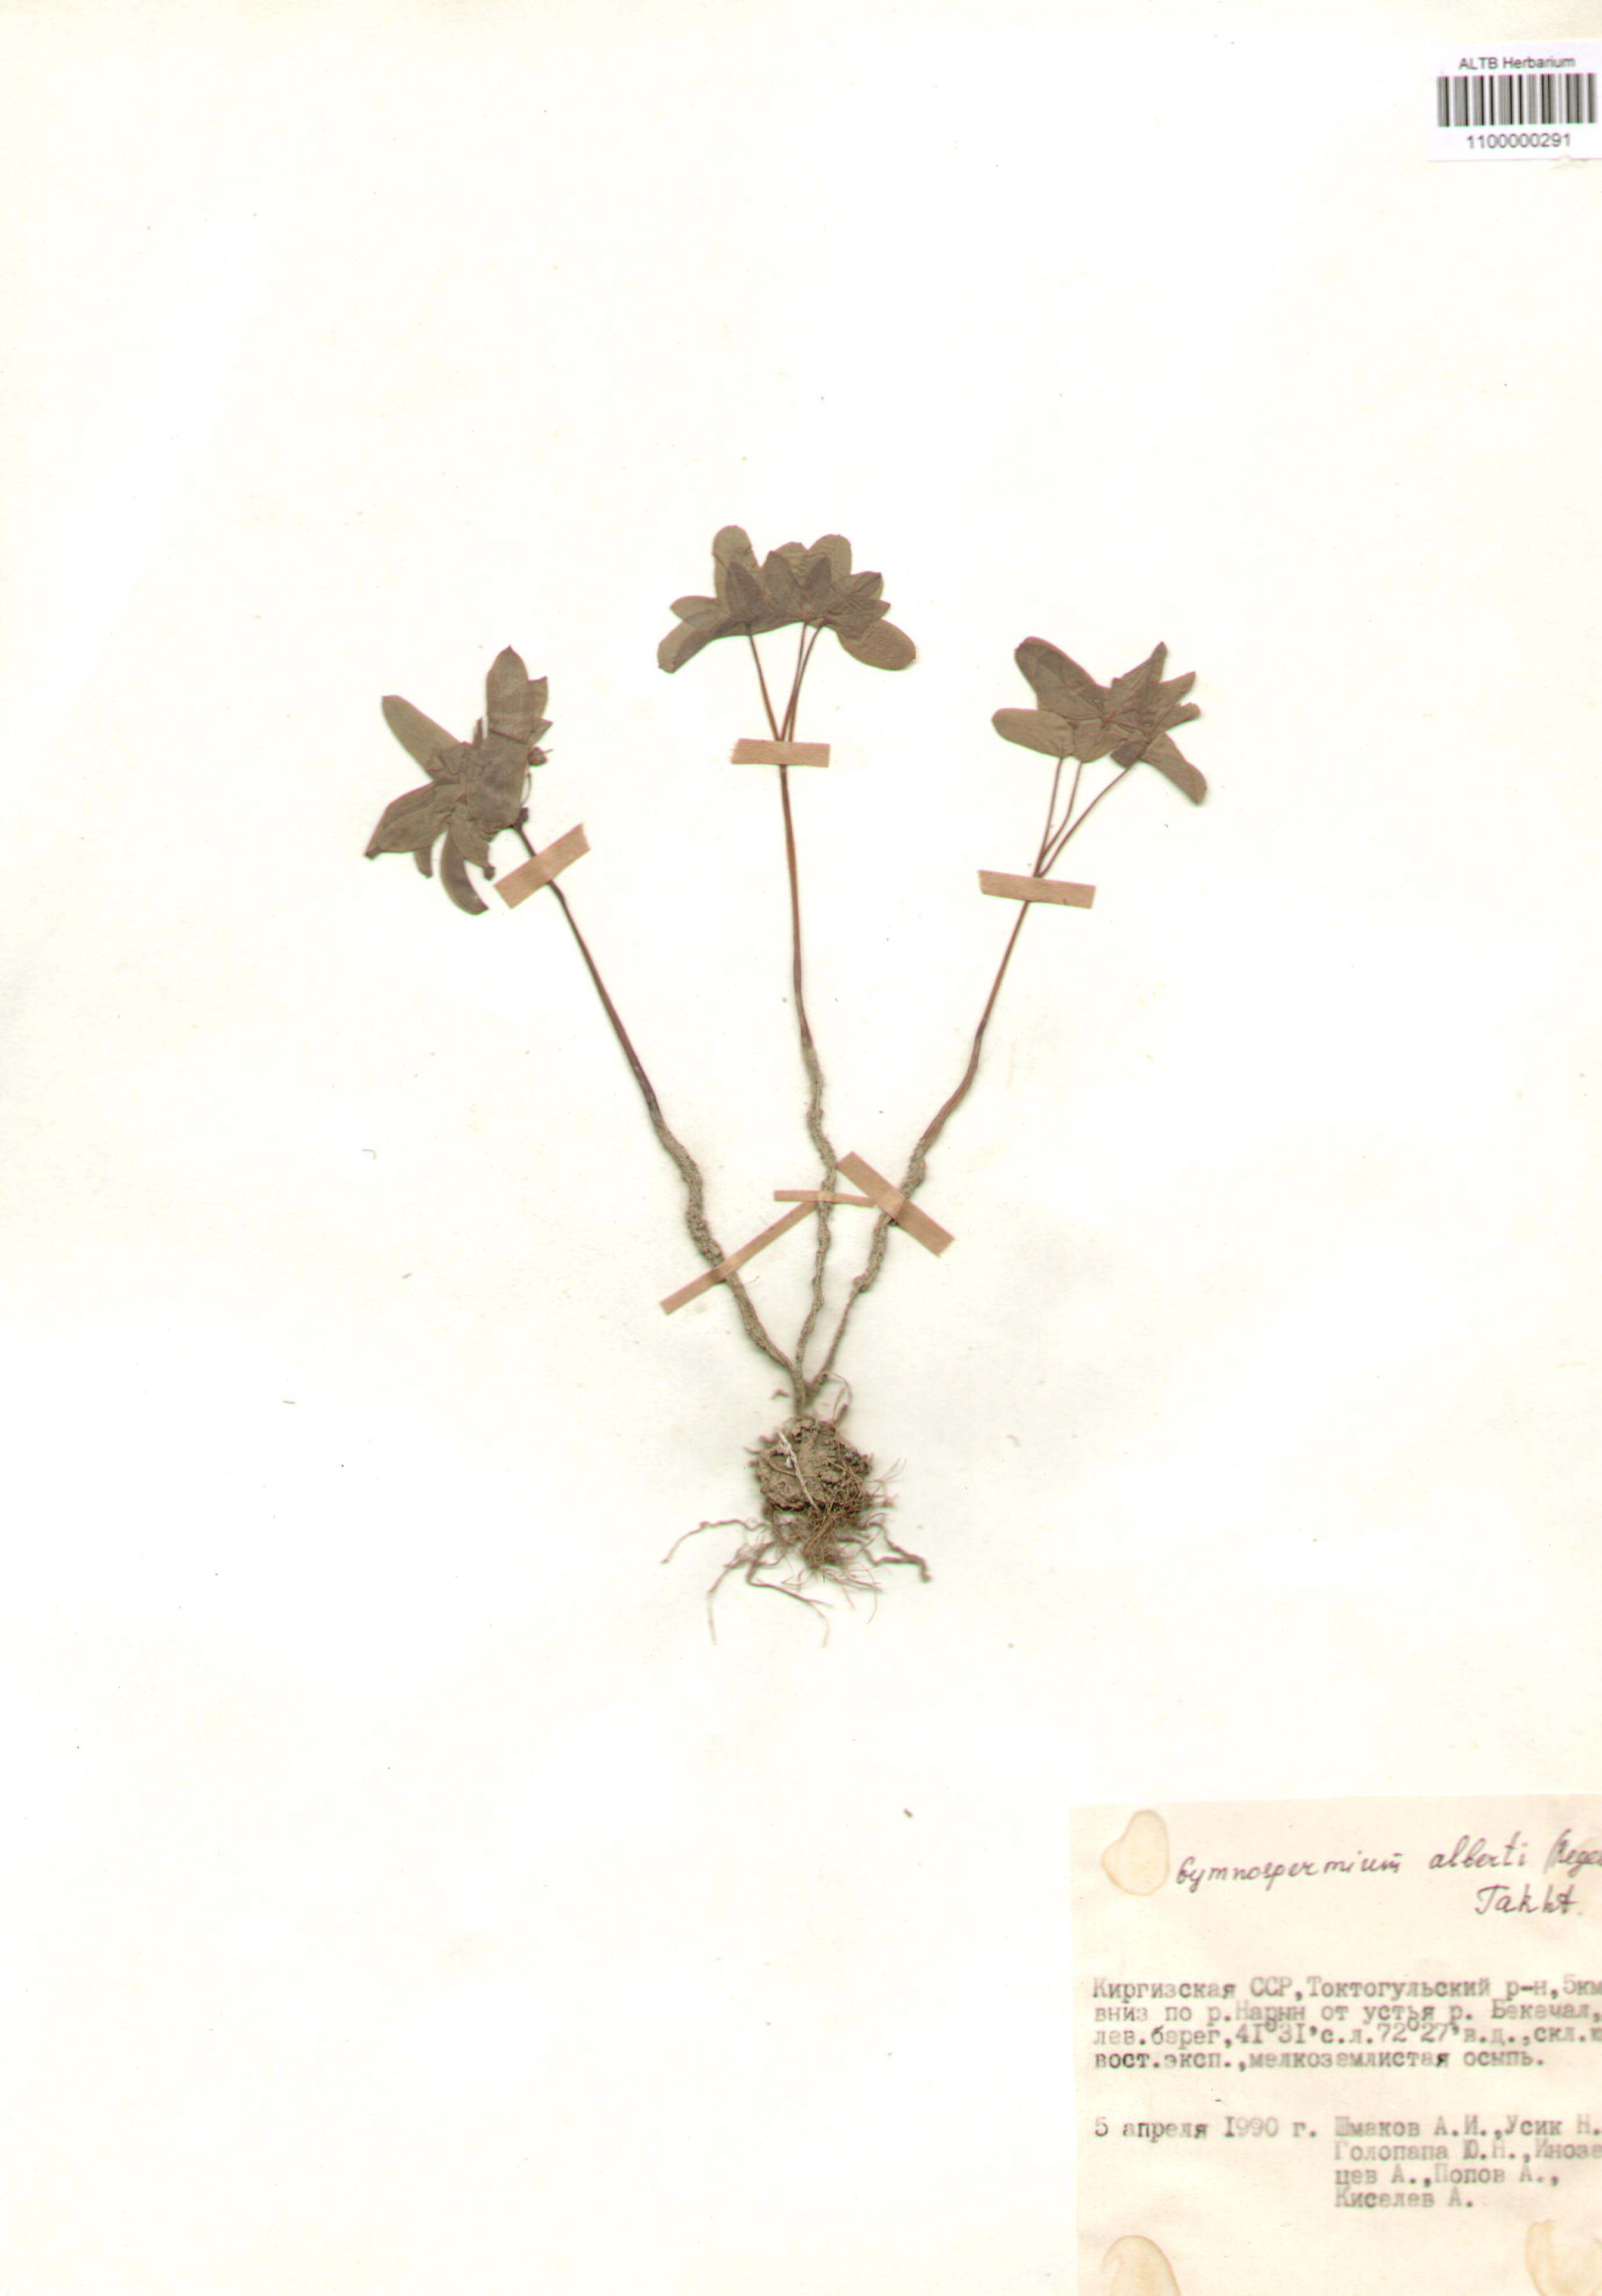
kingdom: Plantae
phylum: Tracheophyta
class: Magnoliopsida
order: Ranunculales
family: Berberidaceae
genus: Gymnospermium
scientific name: Gymnospermium alberti
